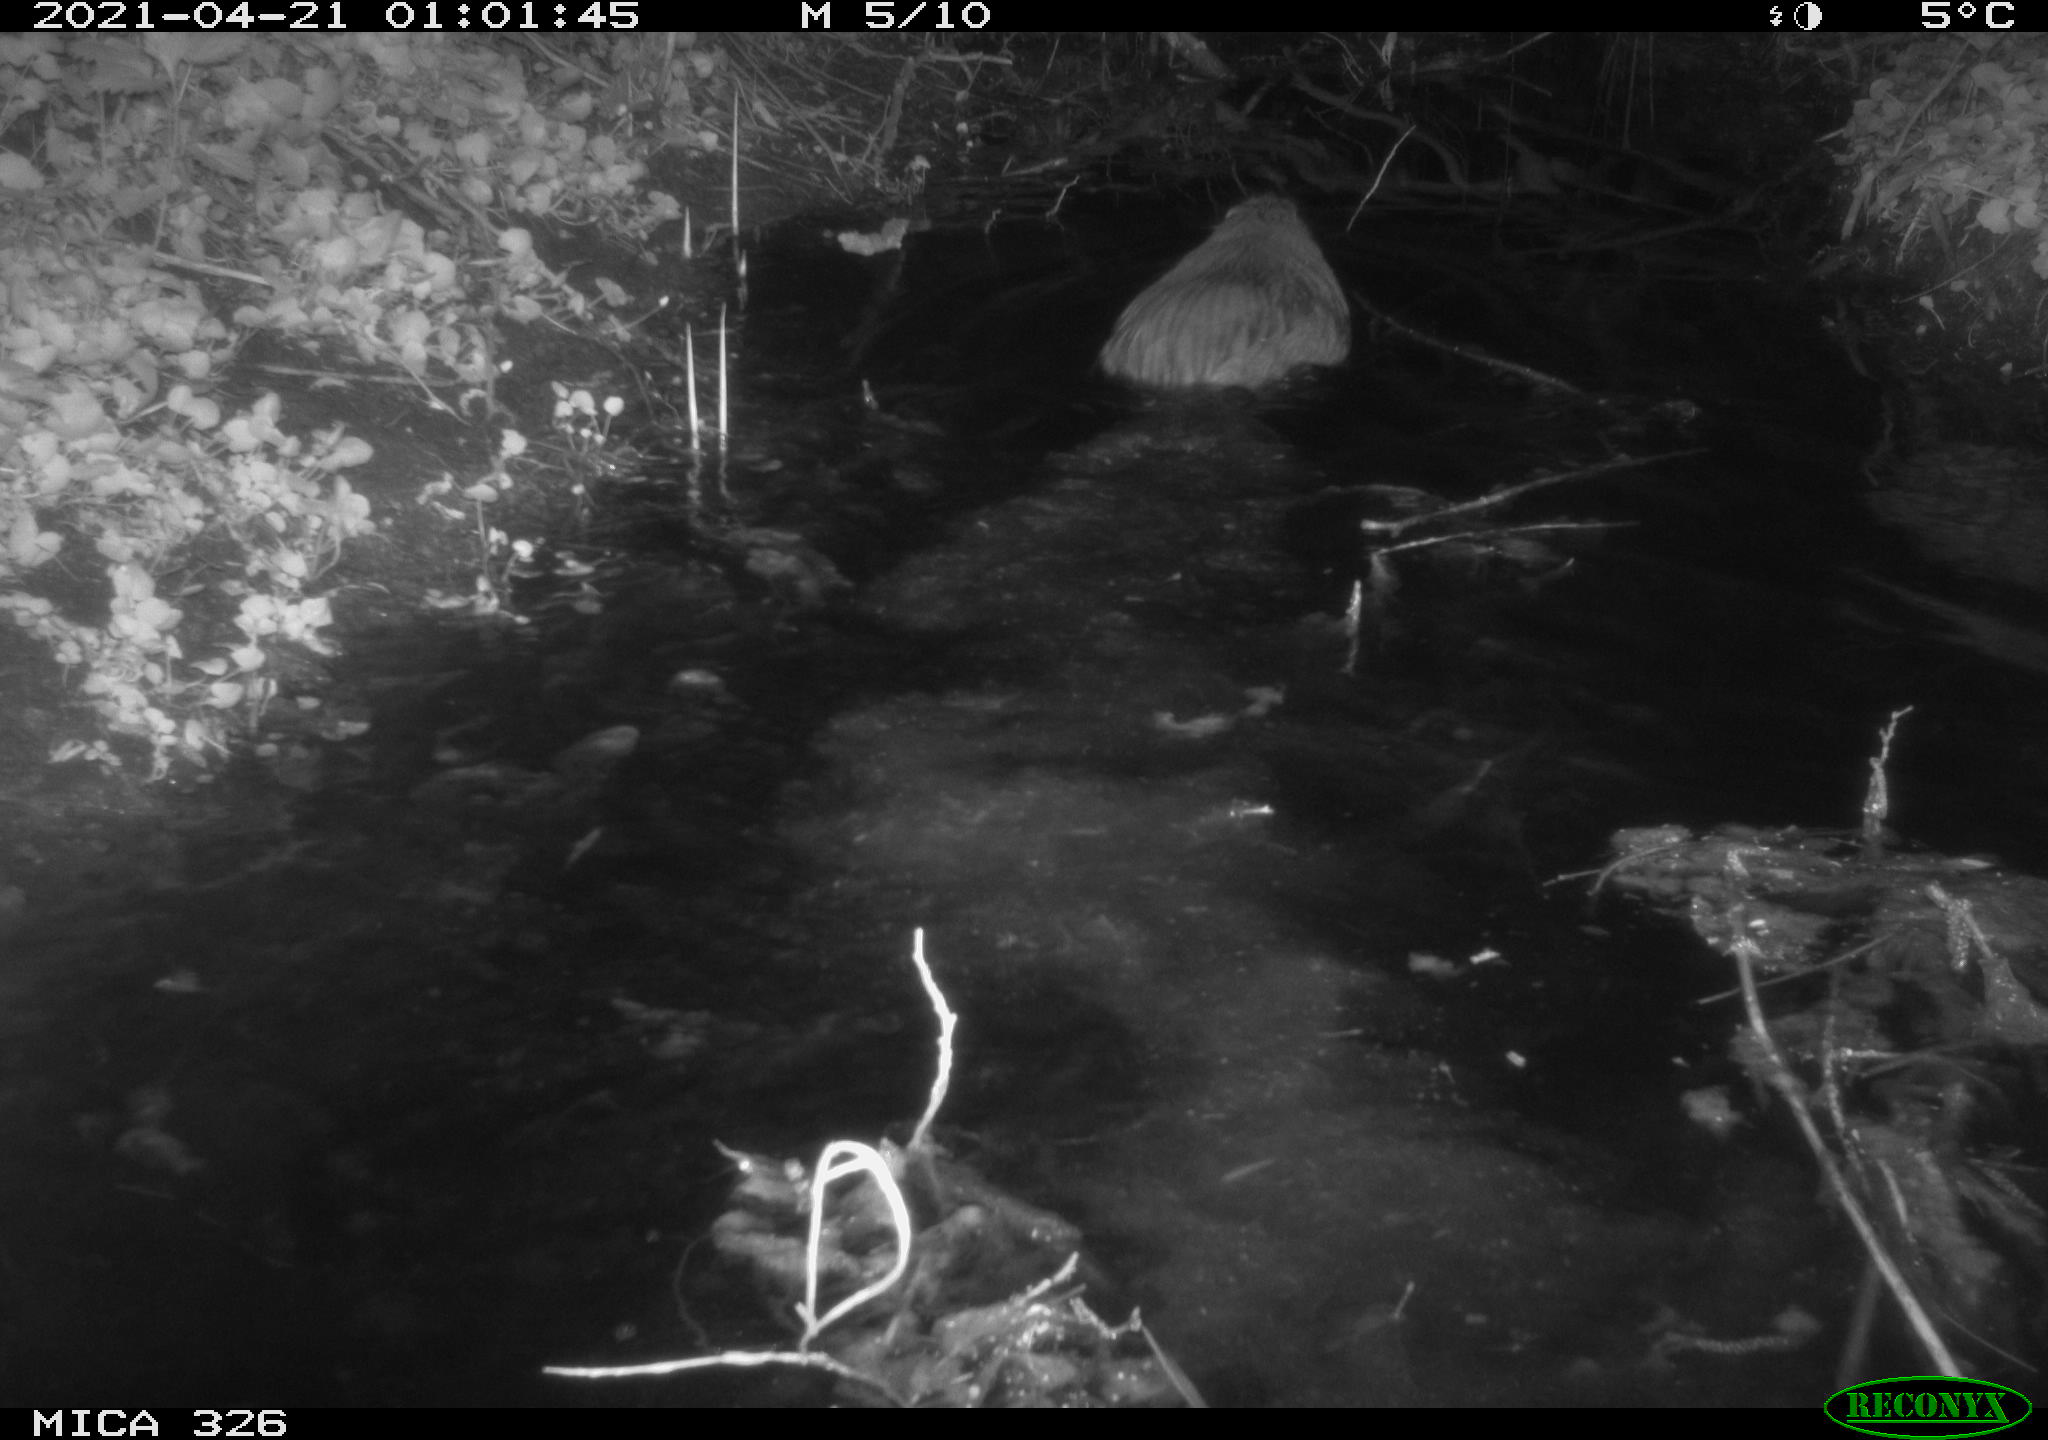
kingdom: Animalia
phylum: Chordata
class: Mammalia
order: Rodentia
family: Myocastoridae
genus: Myocastor
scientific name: Myocastor coypus
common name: Coypu
